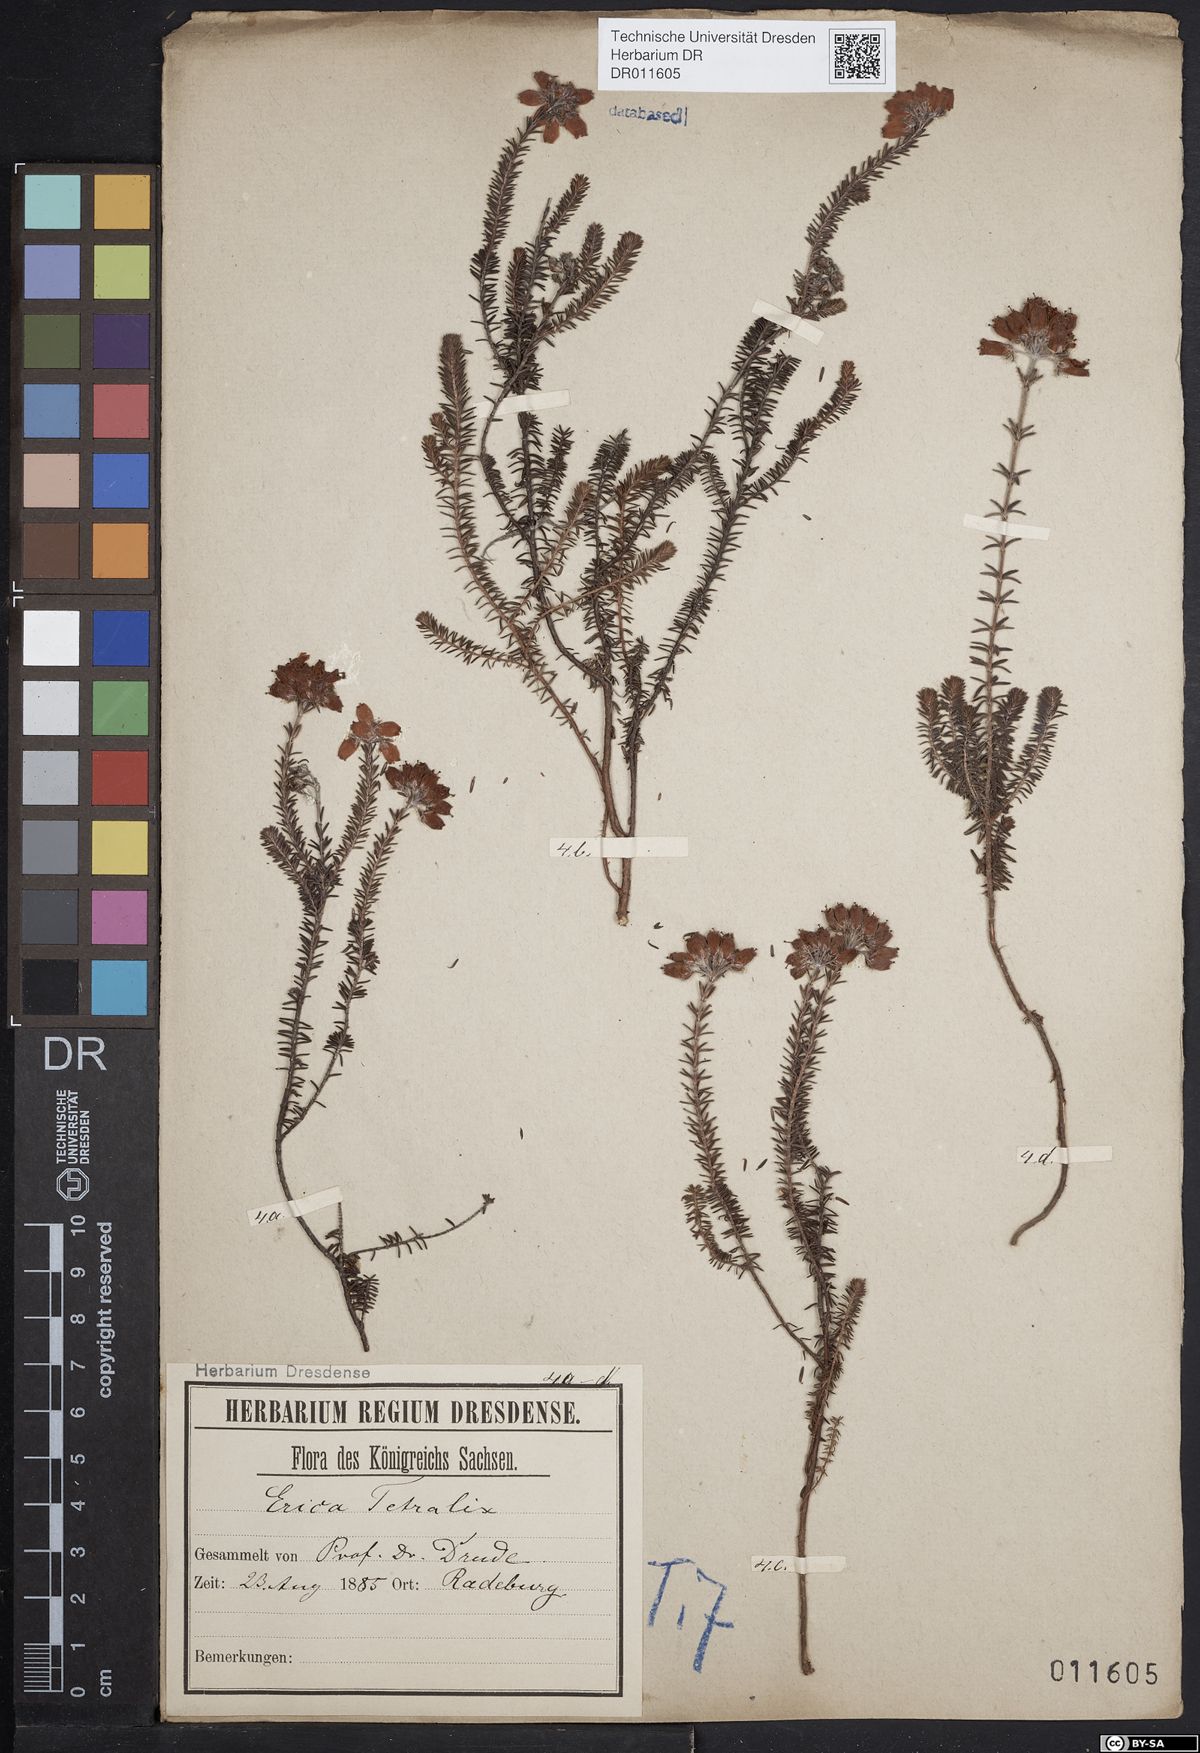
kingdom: Plantae
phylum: Tracheophyta
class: Magnoliopsida
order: Ericales
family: Ericaceae
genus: Erica
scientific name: Erica tetralix
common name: Cross-leaved heath
